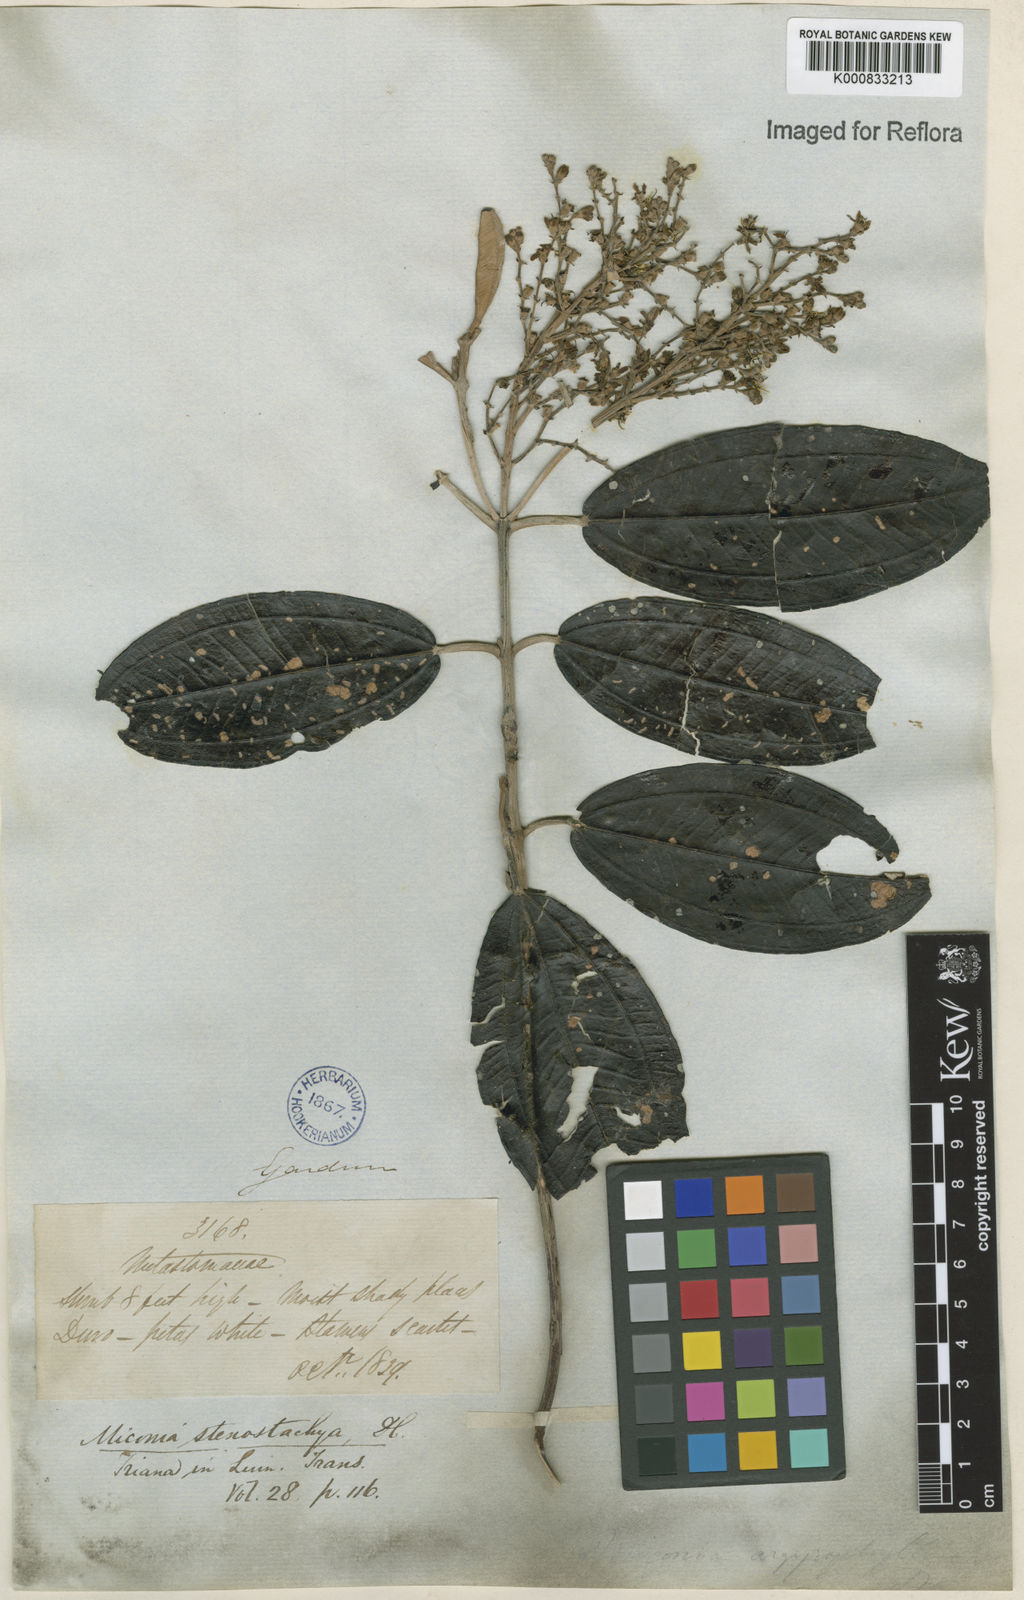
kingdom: Plantae
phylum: Tracheophyta
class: Magnoliopsida
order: Myrtales
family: Melastomataceae
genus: Miconia
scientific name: Miconia stenostachya
